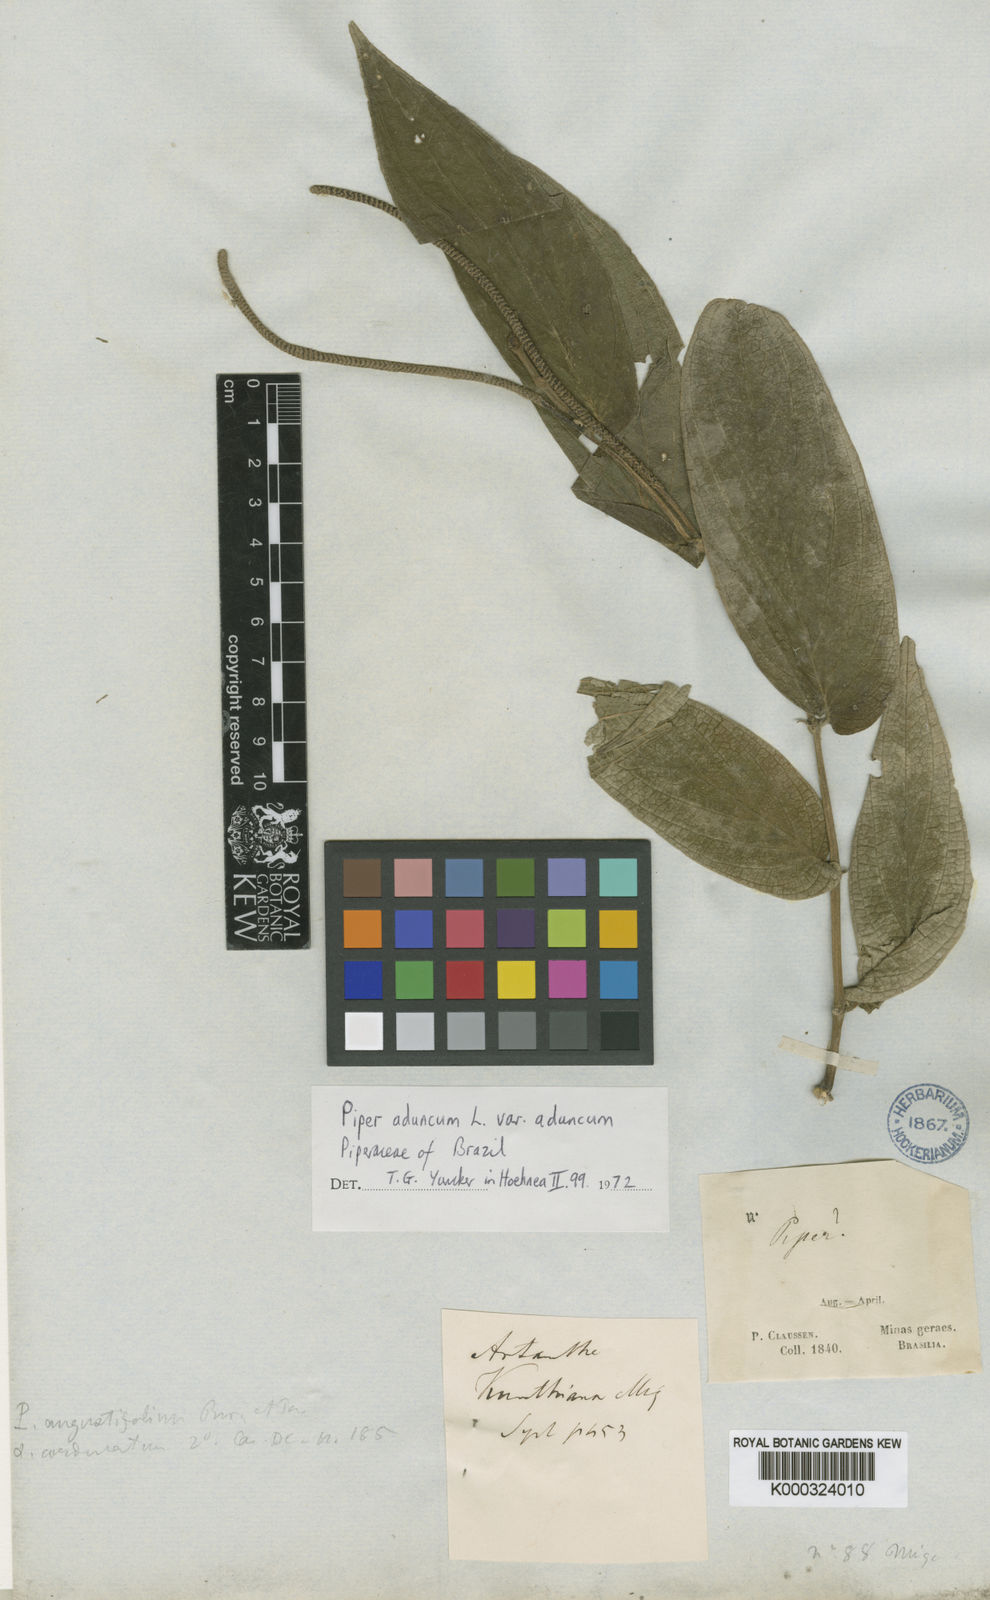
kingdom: Plantae
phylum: Tracheophyta
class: Magnoliopsida
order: Piperales
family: Piperaceae
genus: Piper
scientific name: Piper aduncum
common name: Spiked pepper
